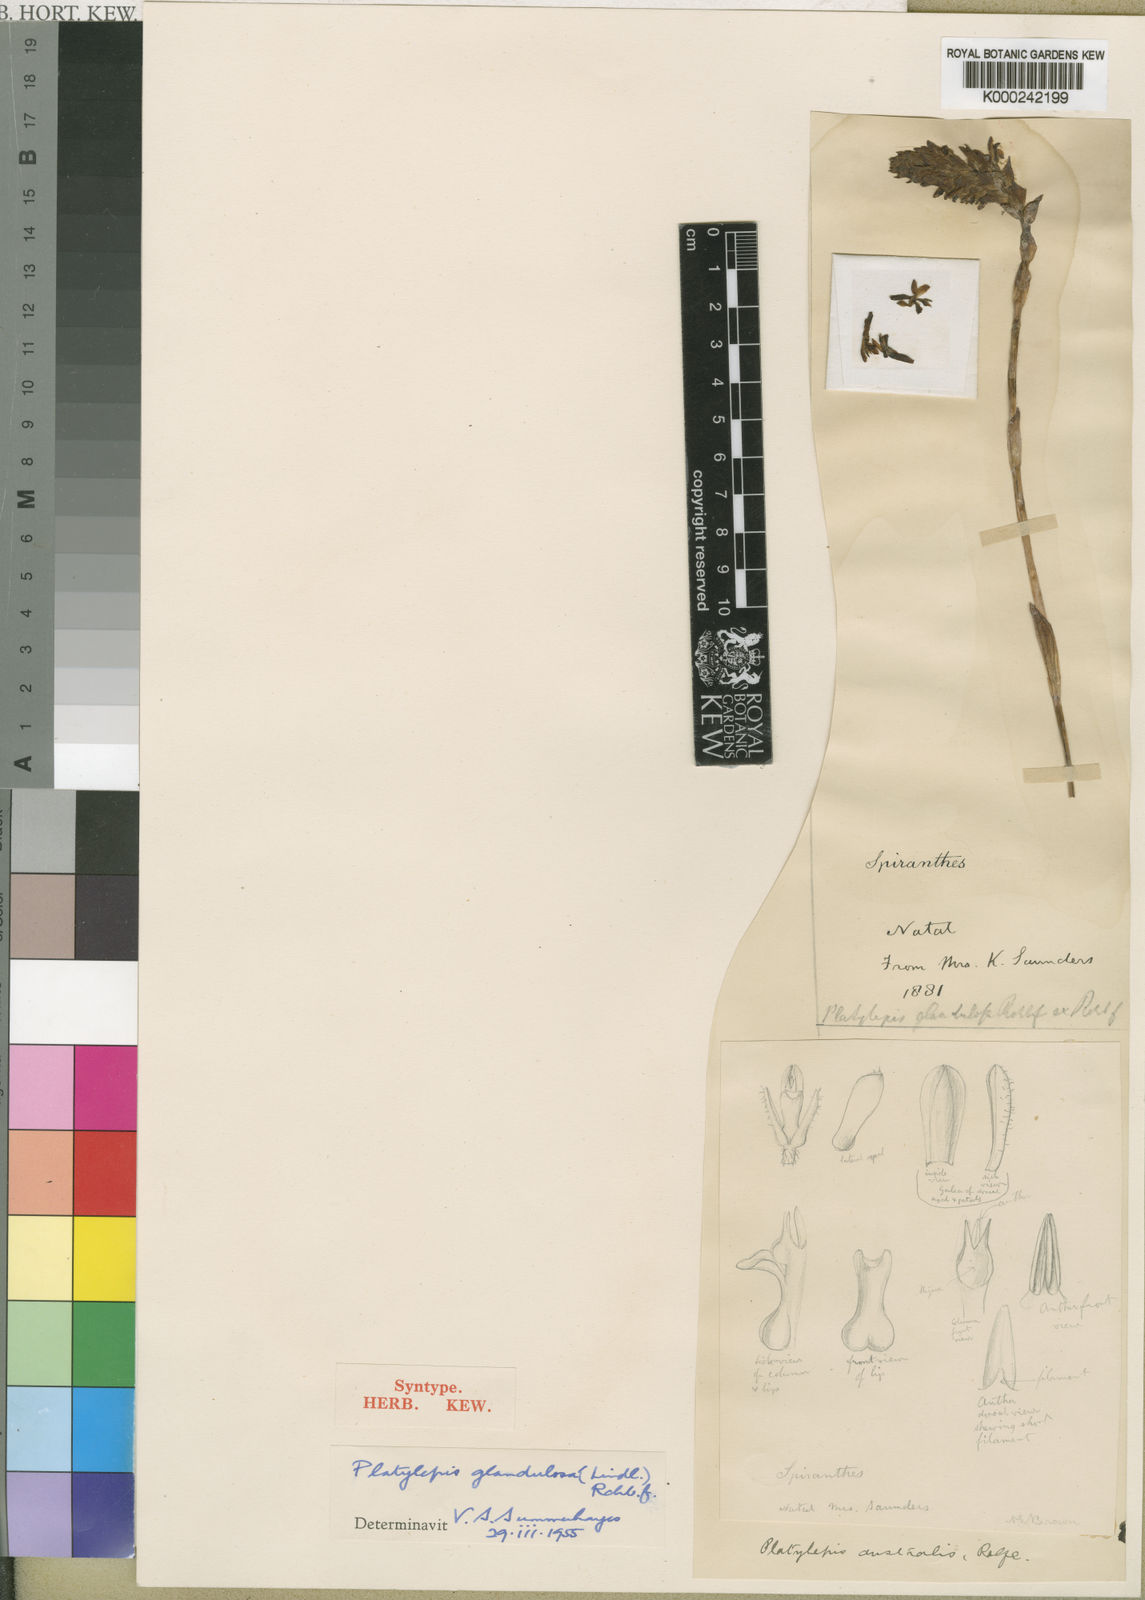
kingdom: Plantae
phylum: Tracheophyta
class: Liliopsida
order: Asparagales
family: Orchidaceae
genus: Platylepis
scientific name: Platylepis glandulosa
